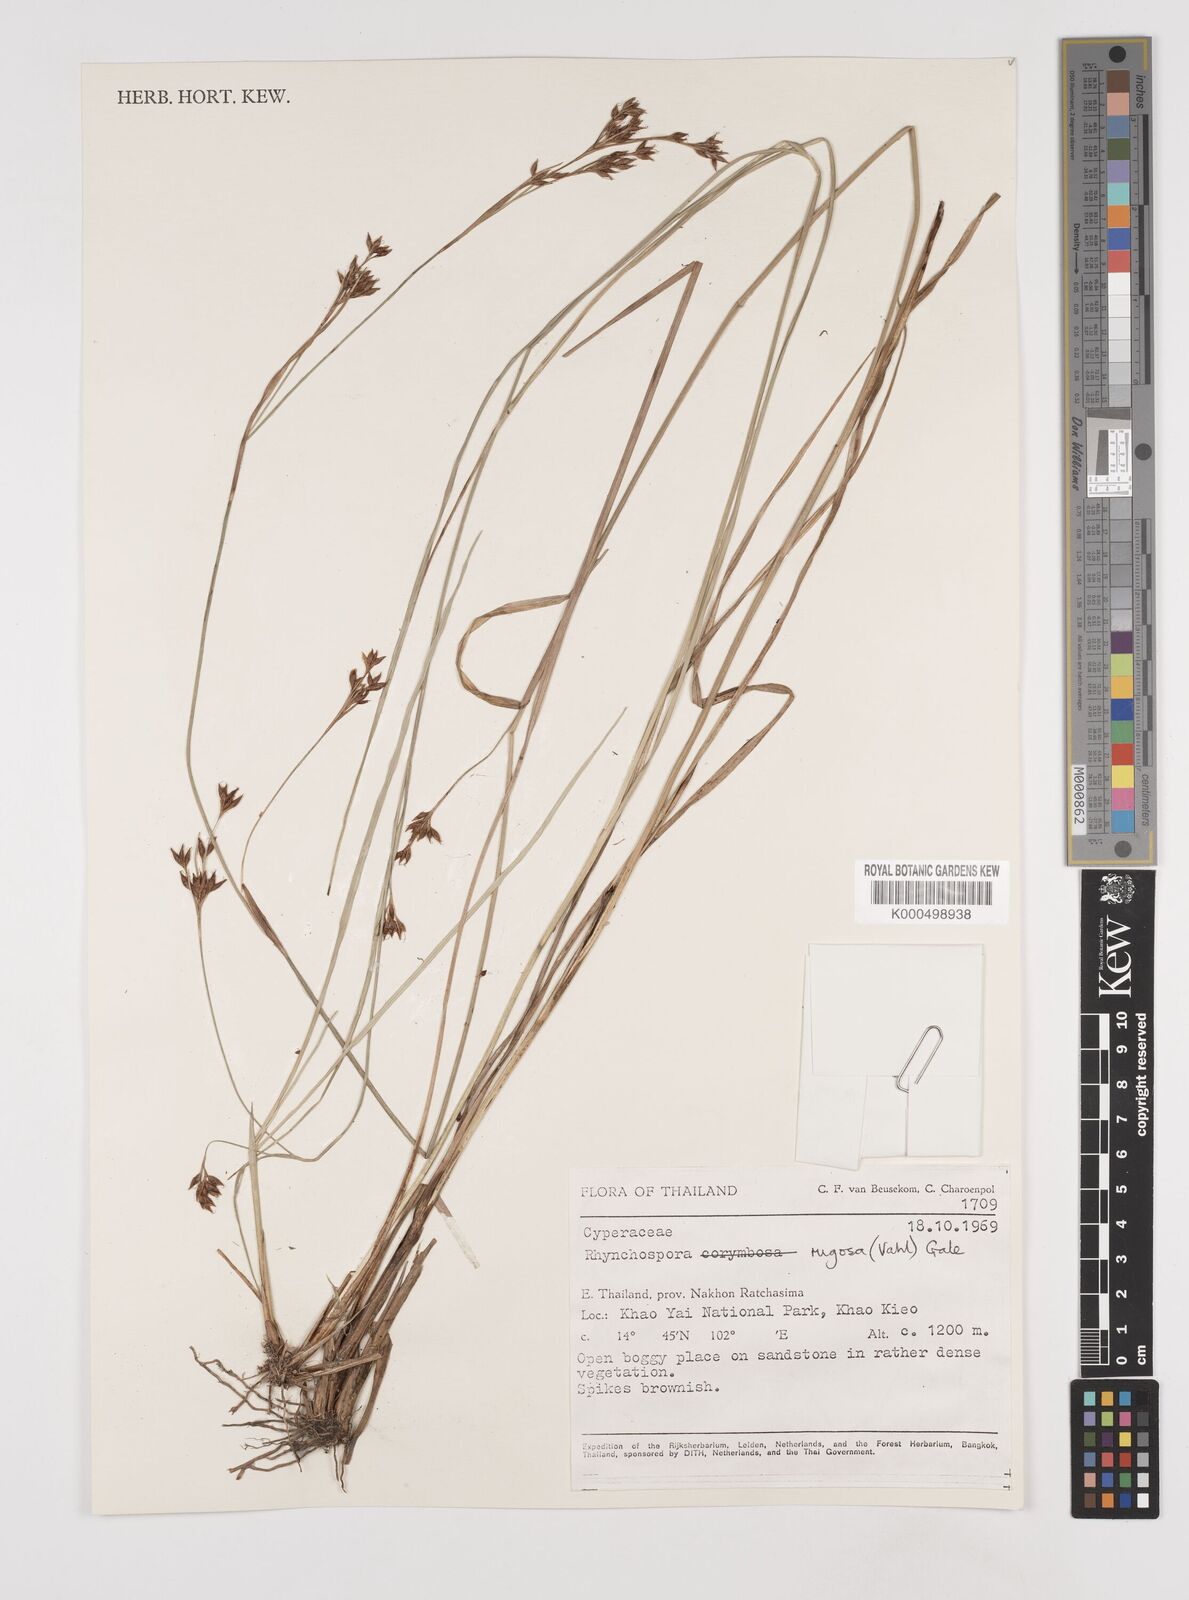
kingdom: Plantae
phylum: Tracheophyta
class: Liliopsida
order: Poales
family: Cyperaceae
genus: Rhynchospora
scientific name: Rhynchospora rugosa
